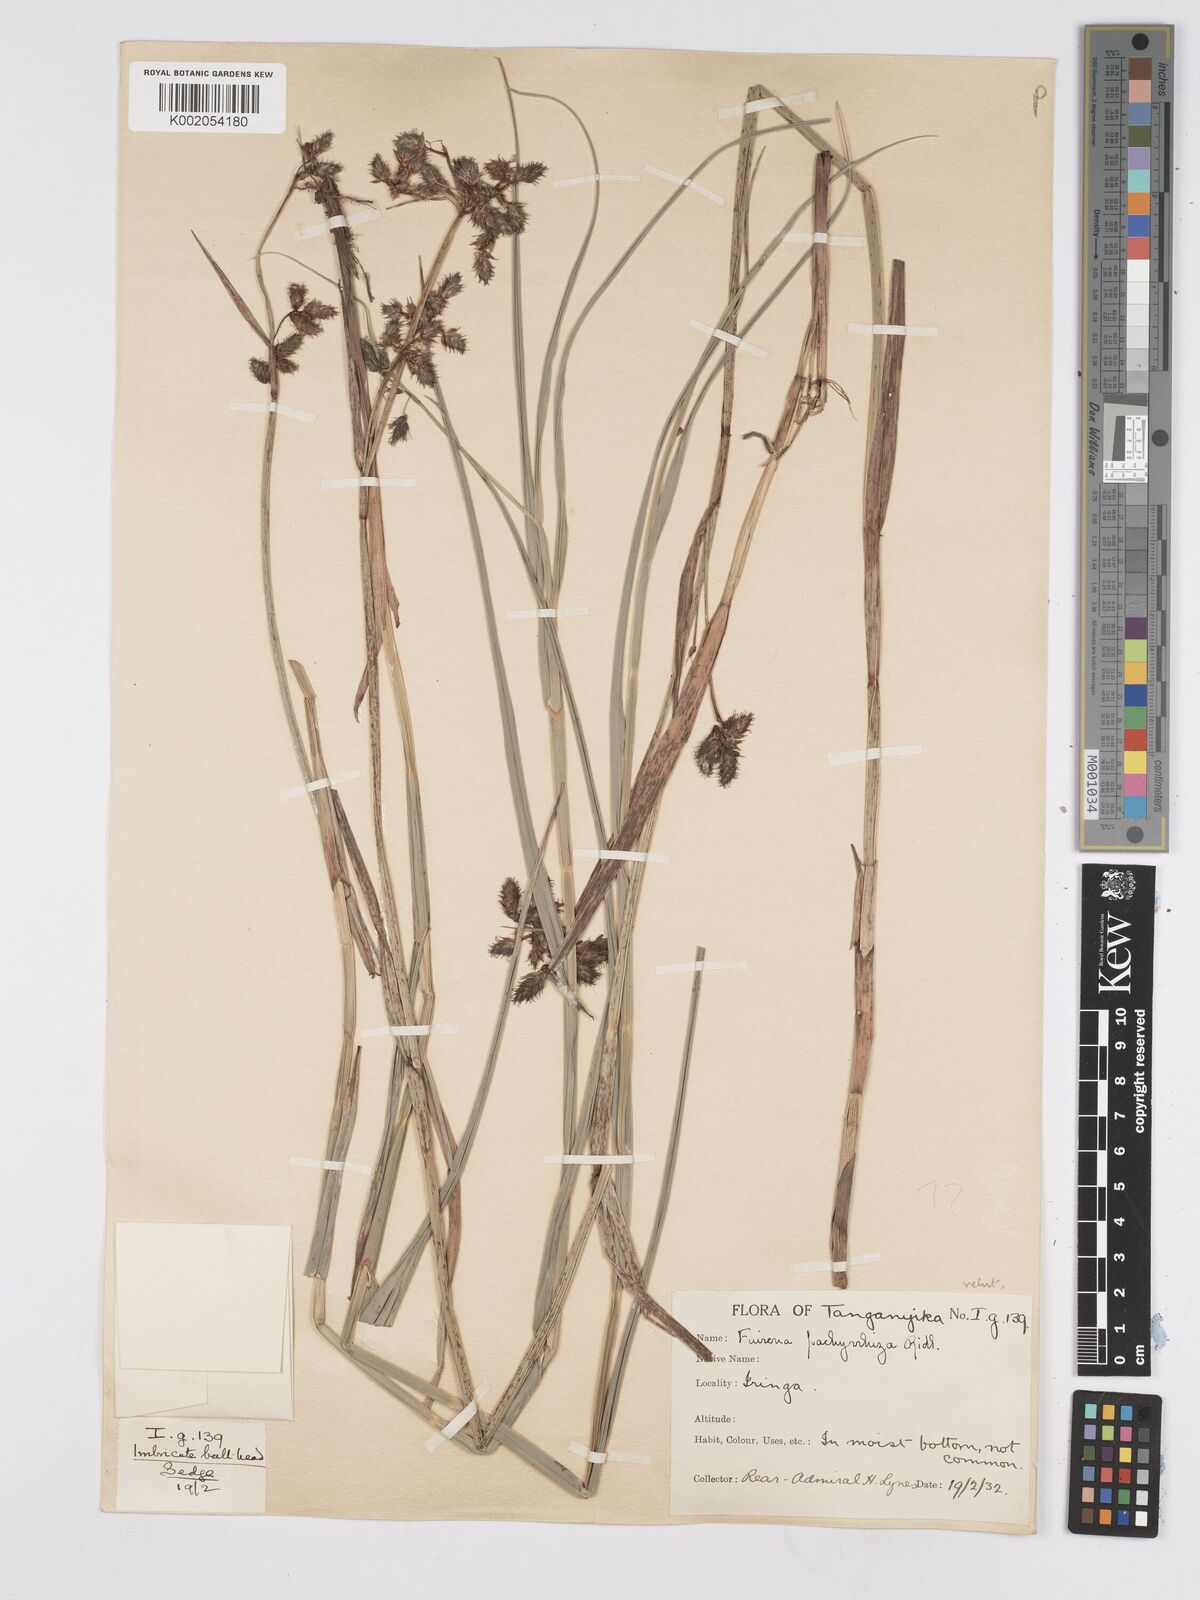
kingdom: Plantae
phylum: Tracheophyta
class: Liliopsida
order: Poales
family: Cyperaceae
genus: Fuirena
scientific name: Fuirena pachyrrhiza
